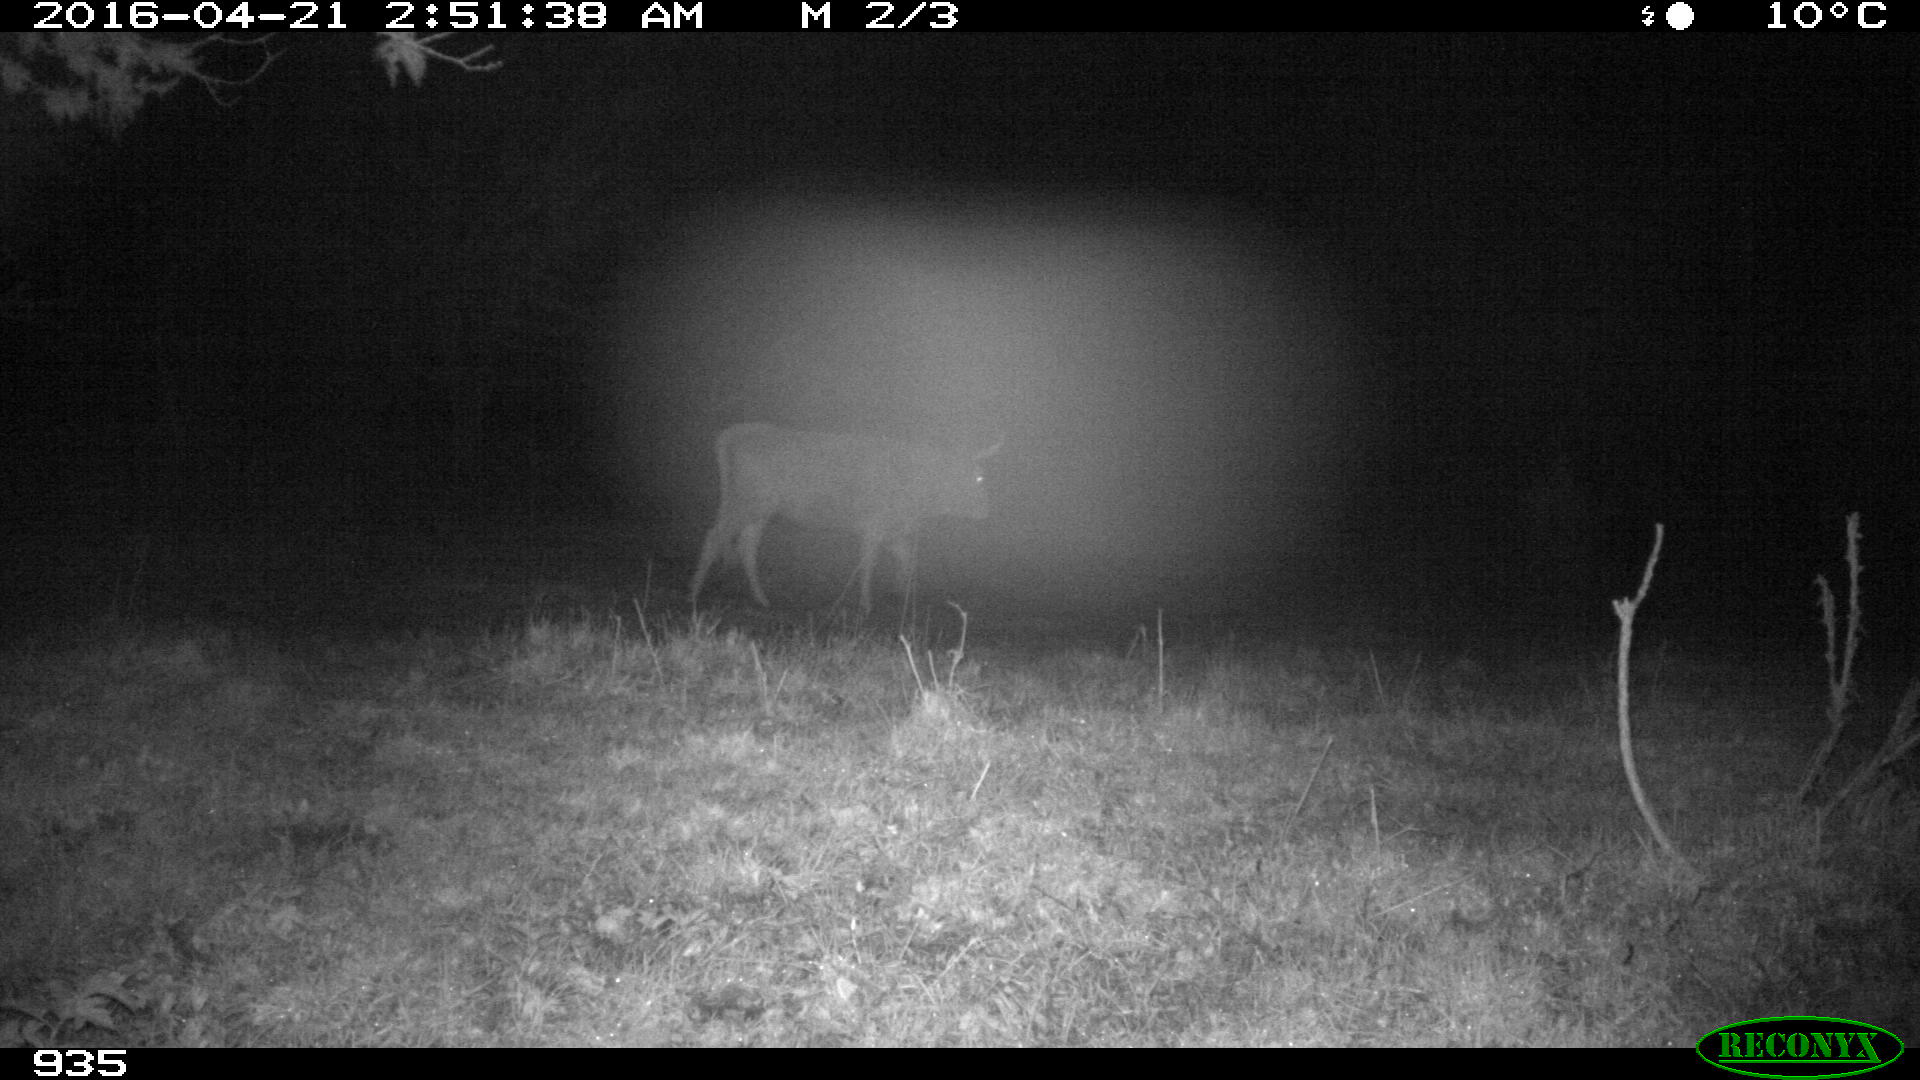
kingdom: Animalia
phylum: Chordata
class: Mammalia
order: Artiodactyla
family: Bovidae
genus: Bos
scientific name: Bos taurus
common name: Domesticated cattle
